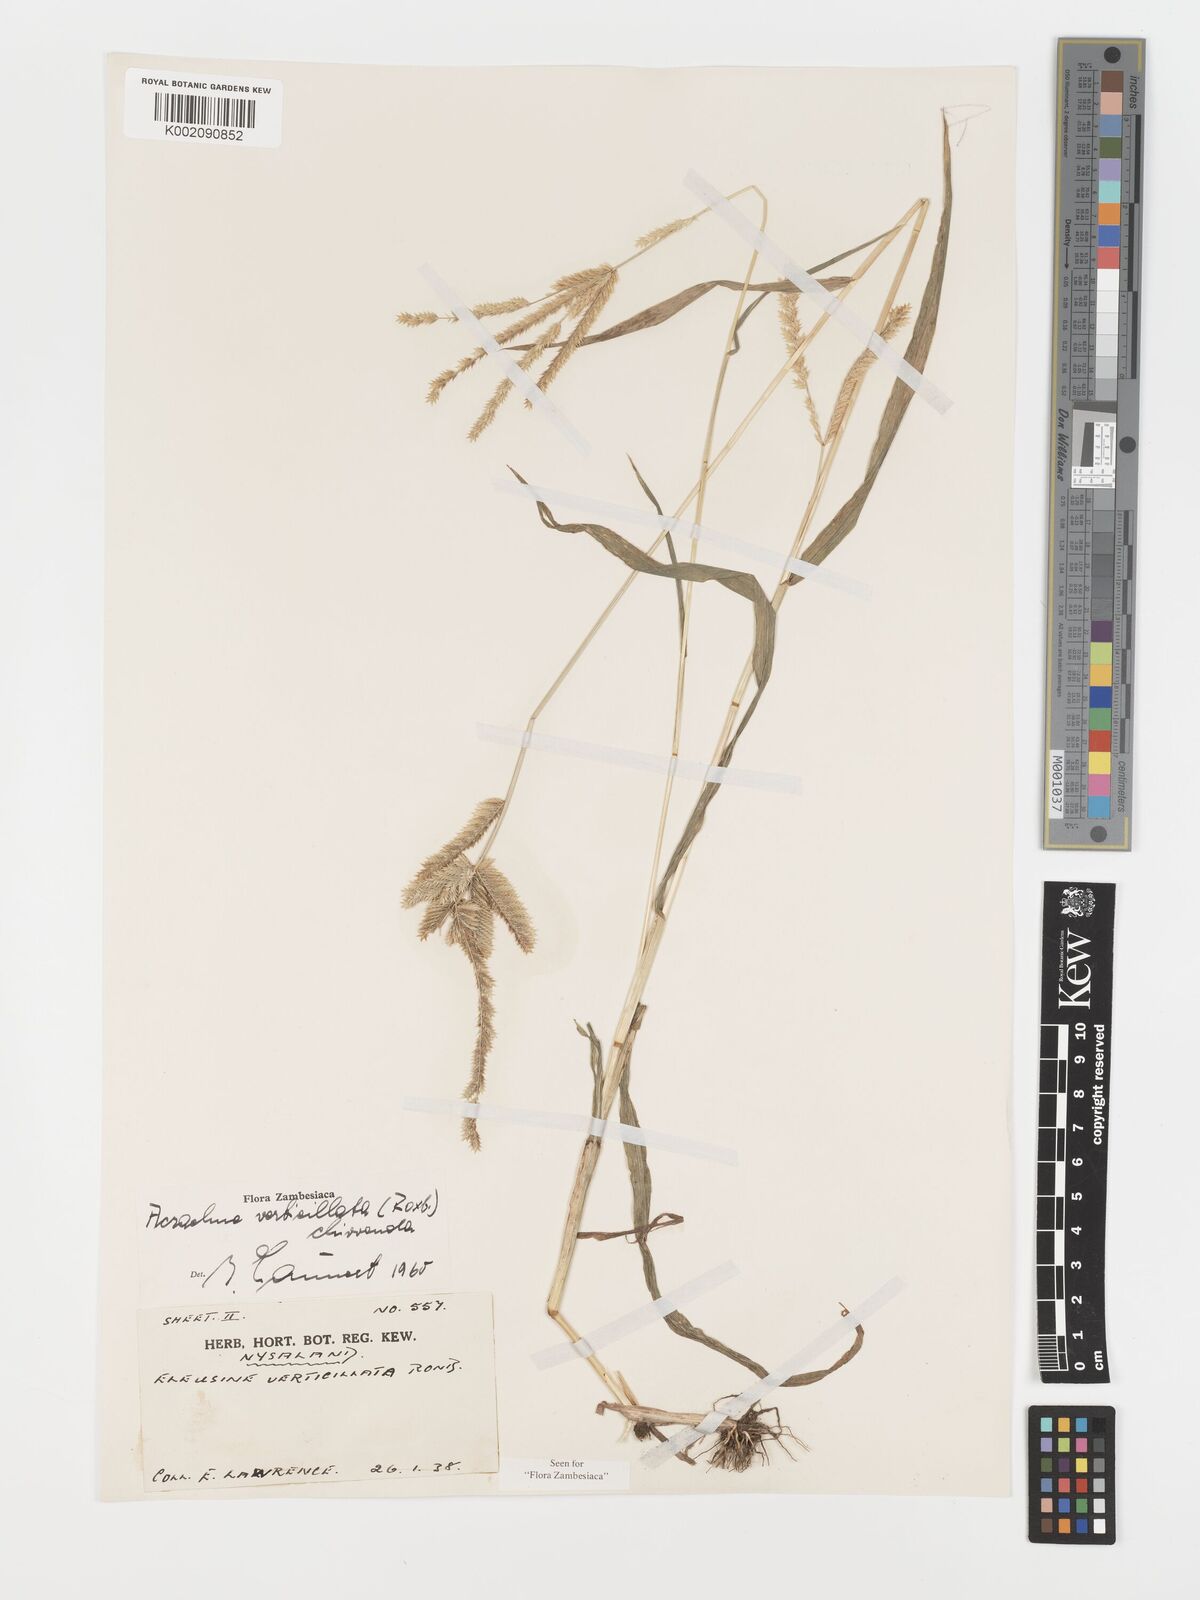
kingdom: Plantae
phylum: Tracheophyta
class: Liliopsida
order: Poales
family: Poaceae
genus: Acrachne
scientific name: Acrachne racemosa
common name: Goosegrass
